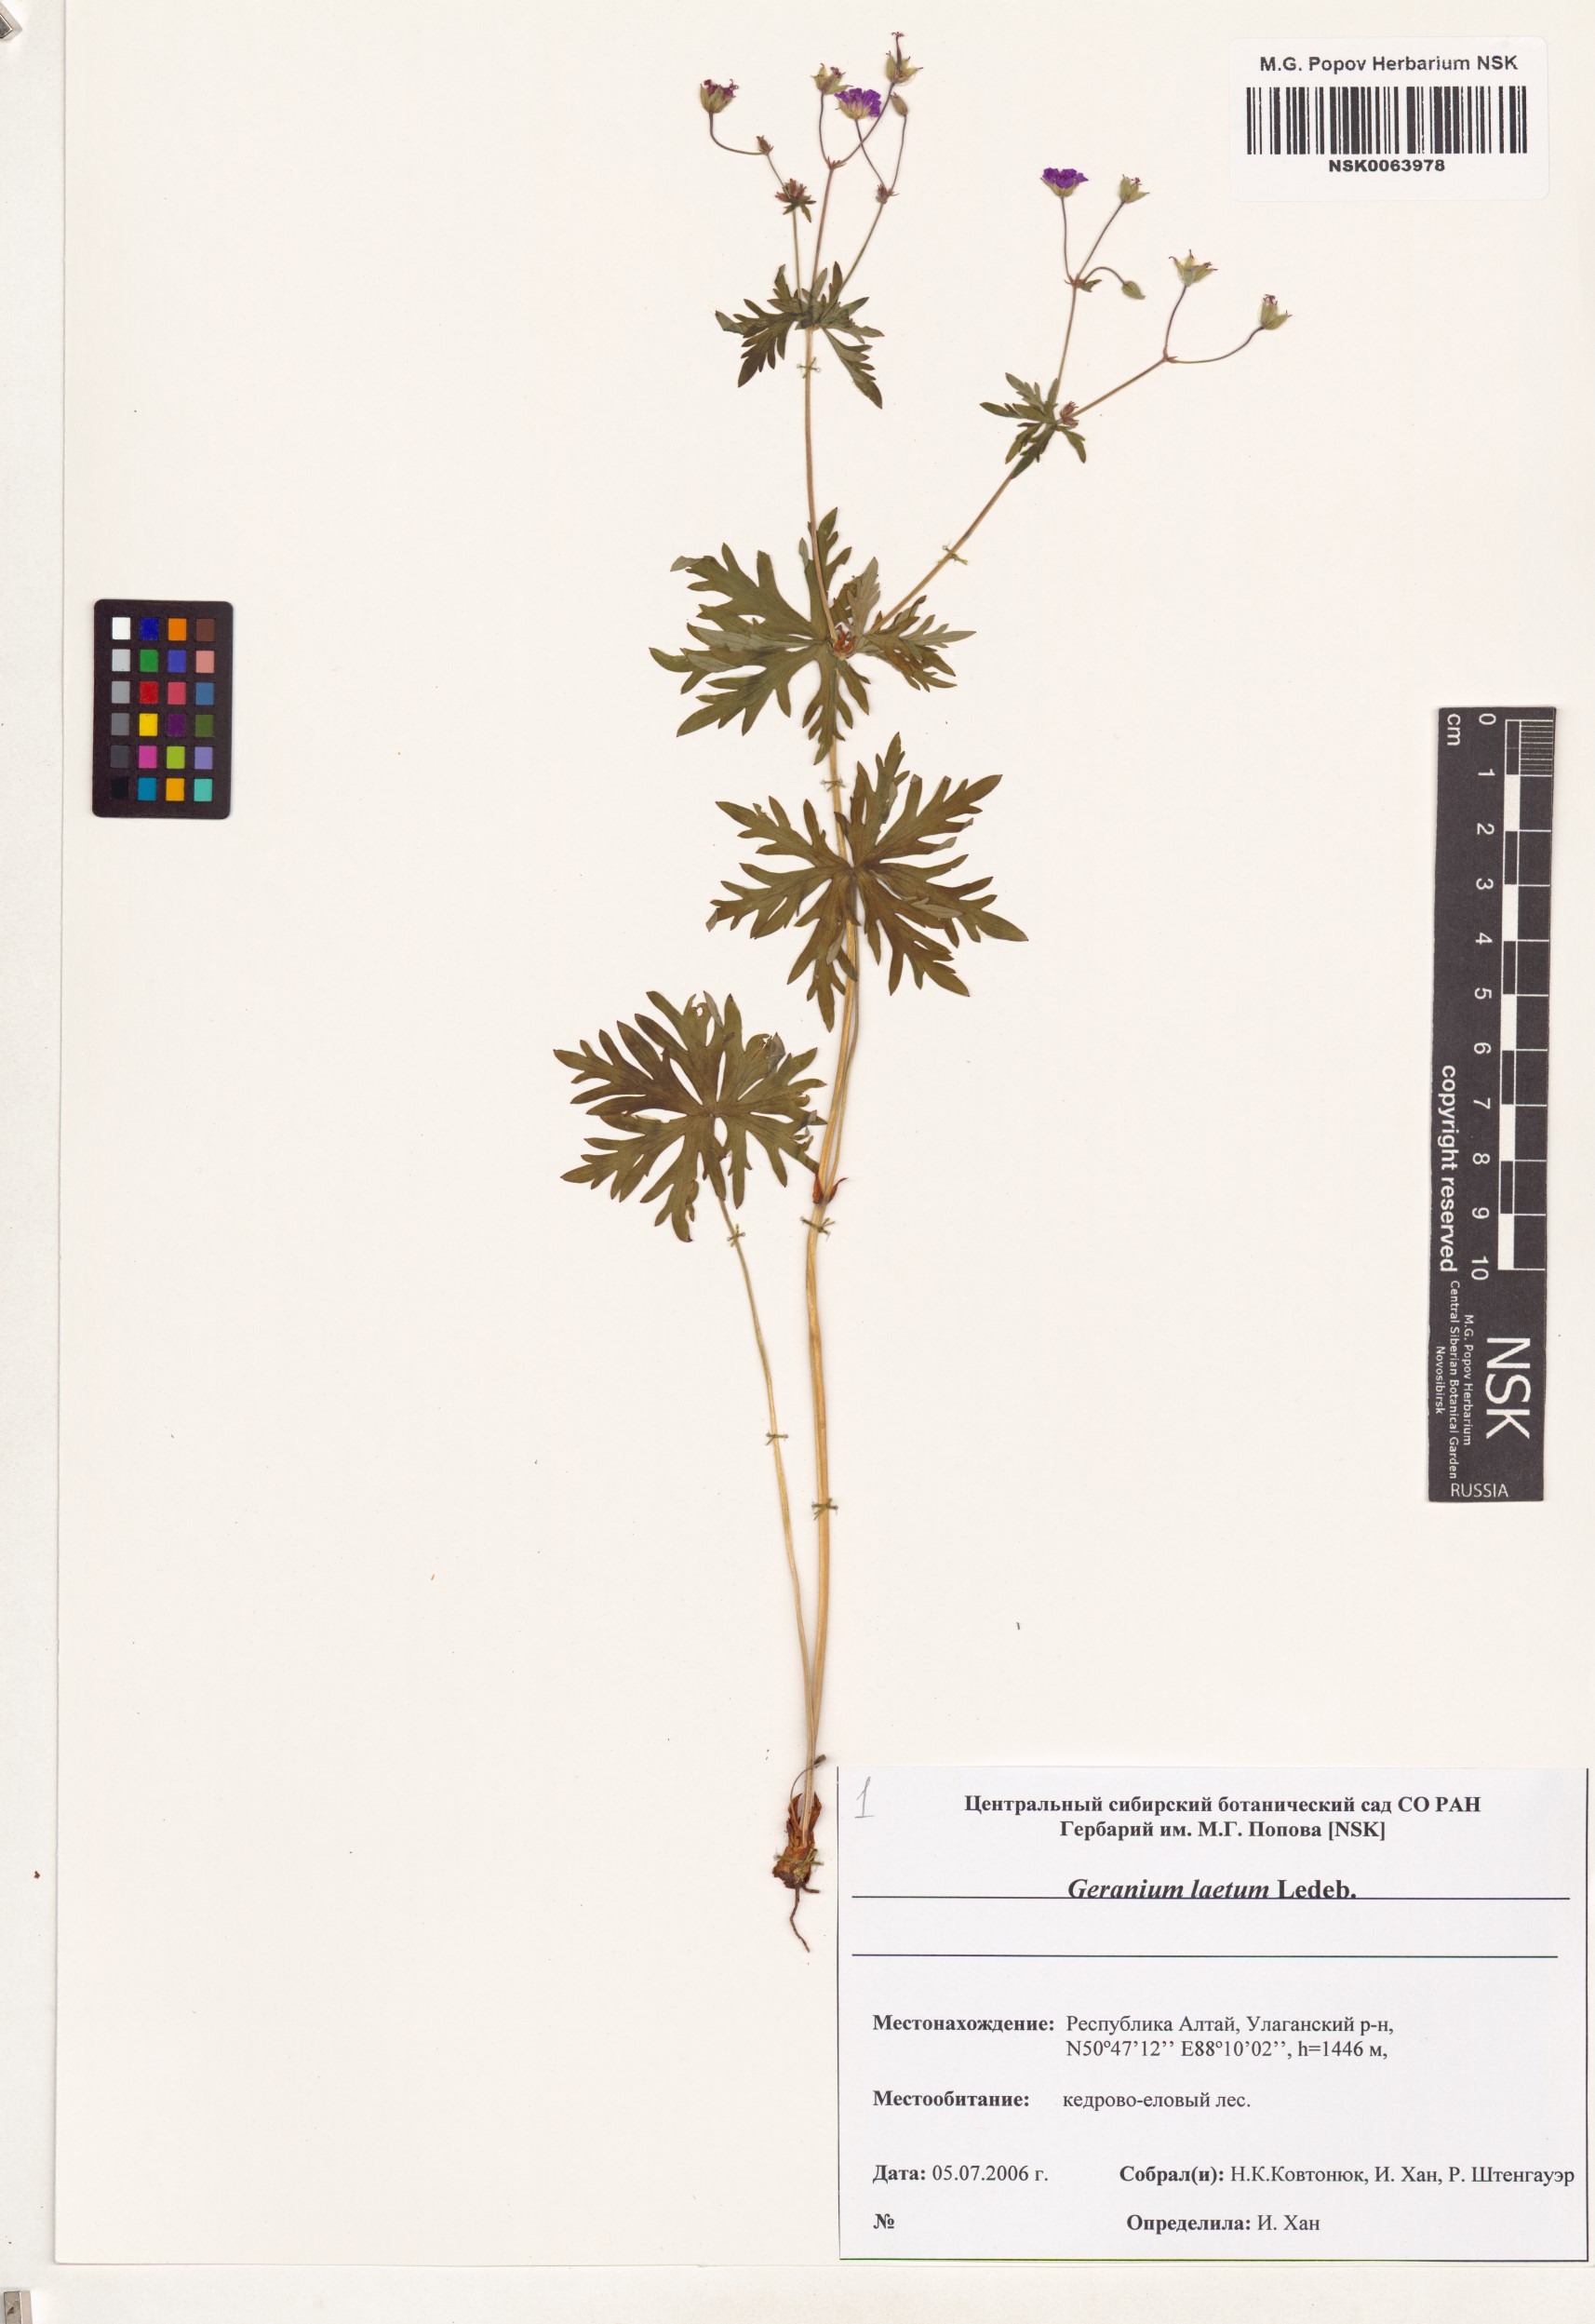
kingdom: Plantae
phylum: Tracheophyta
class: Magnoliopsida
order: Geraniales
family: Geraniaceae
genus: Geranium
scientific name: Geranium pseudosibiricum
